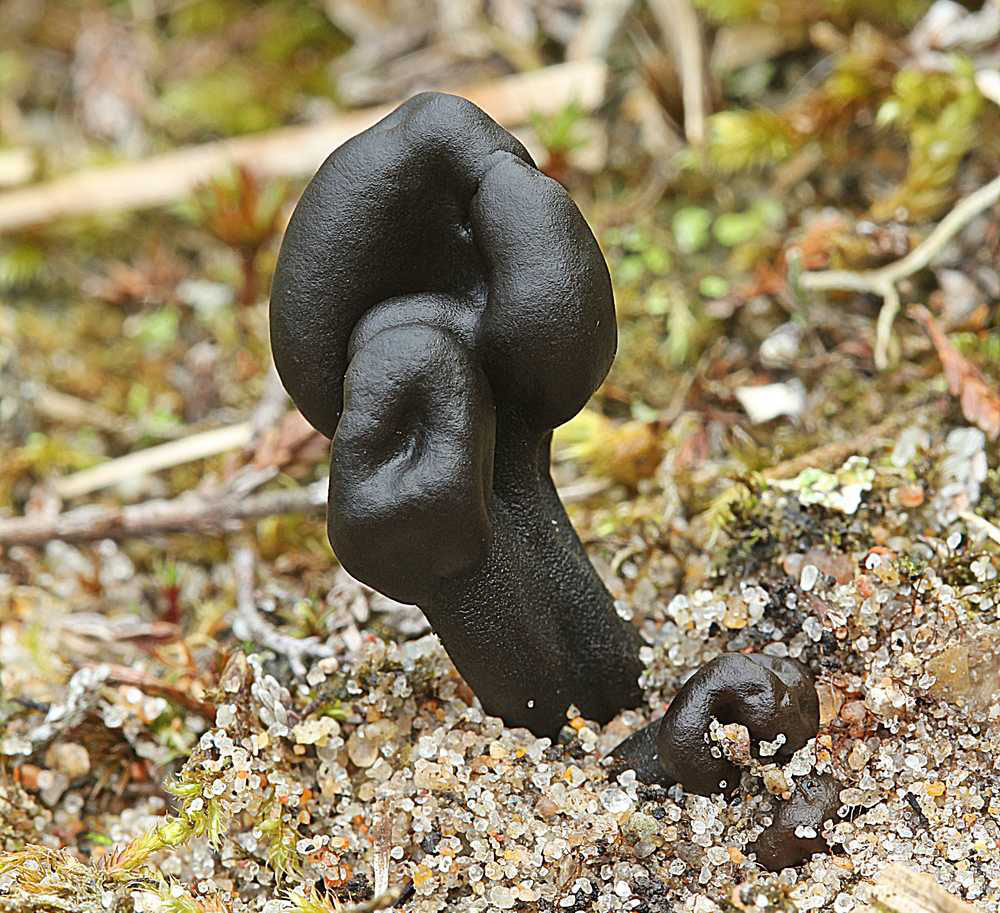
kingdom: Fungi
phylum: Ascomycota
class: Geoglossomycetes
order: Geoglossales
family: Geoglossaceae
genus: Sabuloglossum
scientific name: Sabuloglossum arenarium
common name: klit-jordtunge
